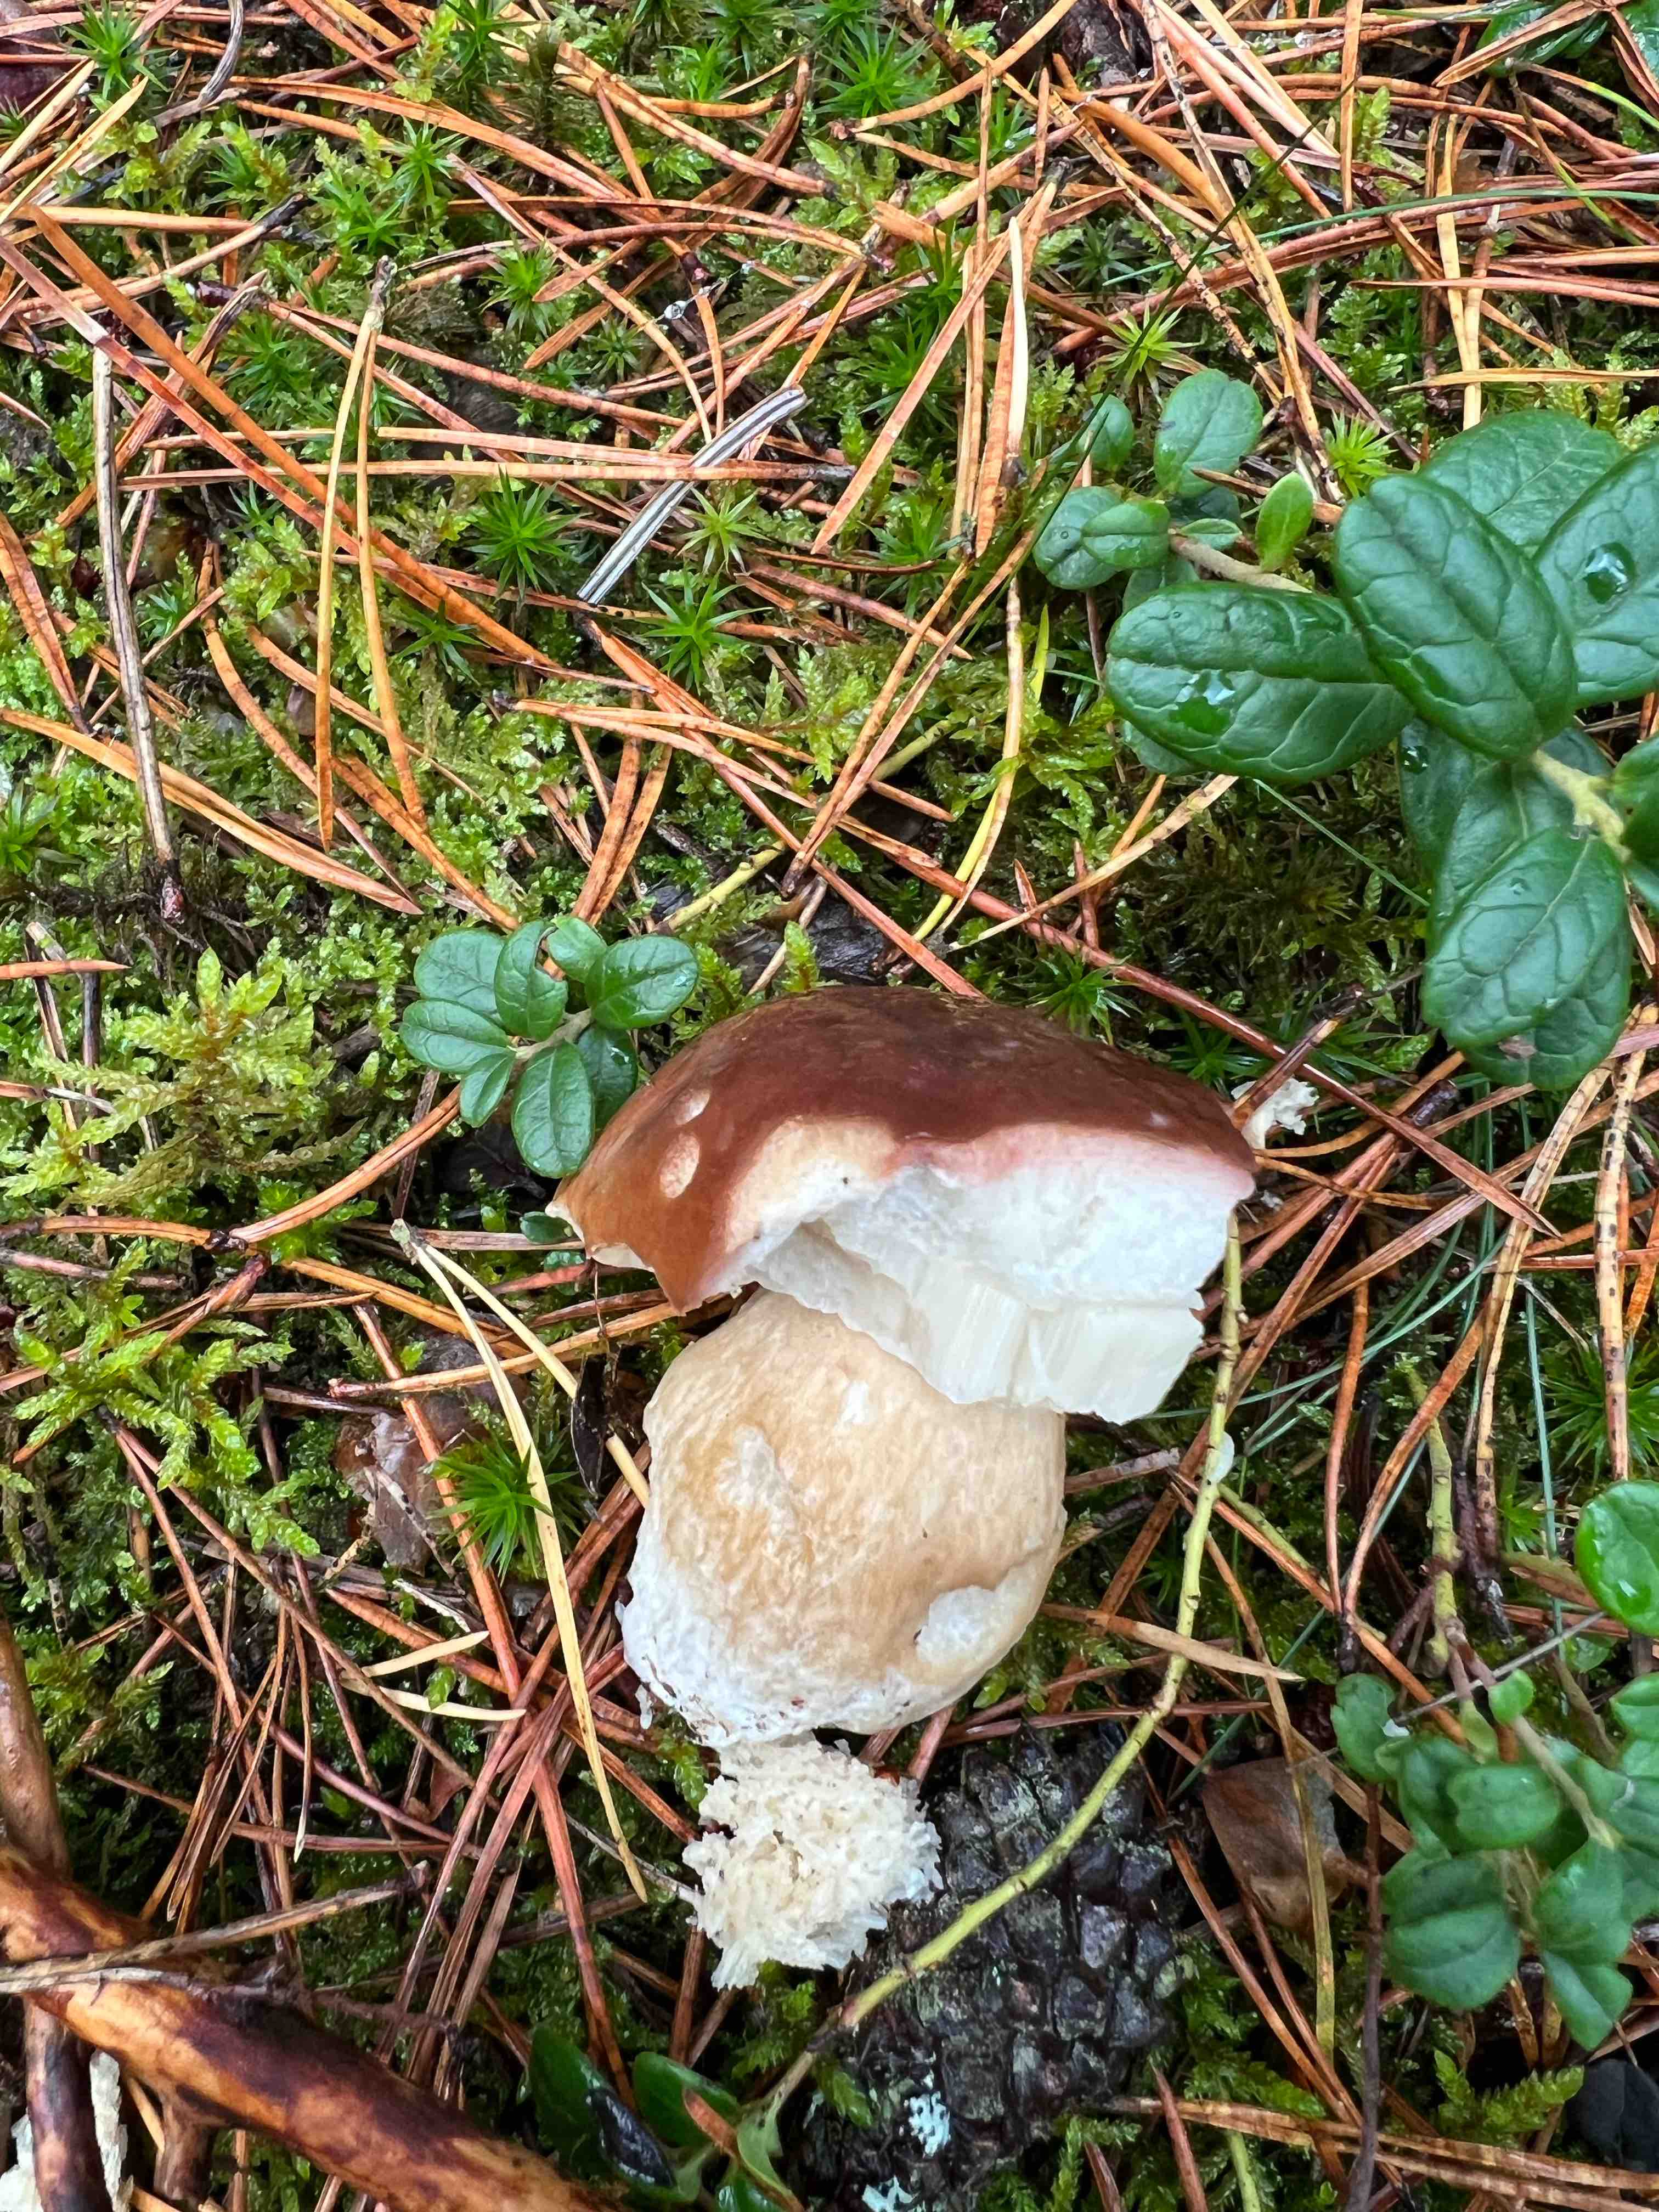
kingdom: Fungi
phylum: Basidiomycota
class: Agaricomycetes
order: Boletales
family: Boletaceae
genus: Boletus
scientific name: Boletus edulis
